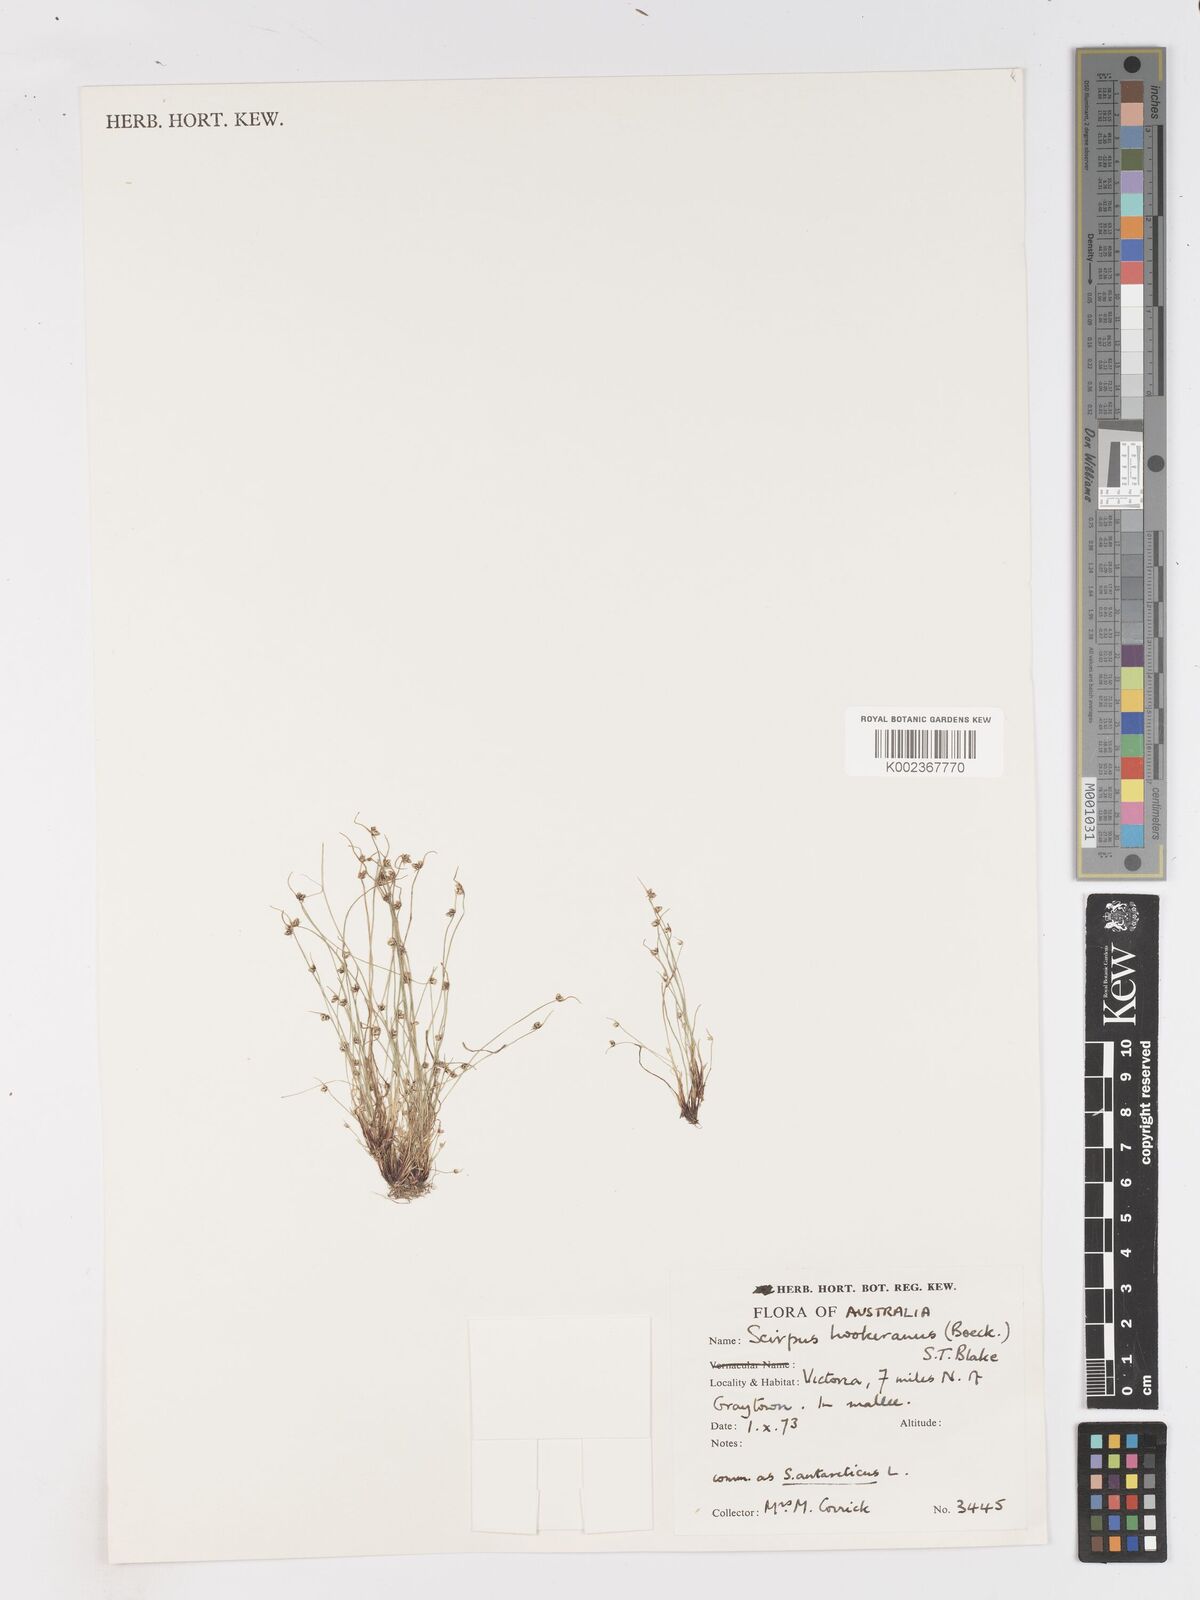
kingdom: Plantae
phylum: Tracheophyta
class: Liliopsida
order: Poales
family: Cyperaceae
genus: Isolepis
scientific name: Isolepis multicaulis
